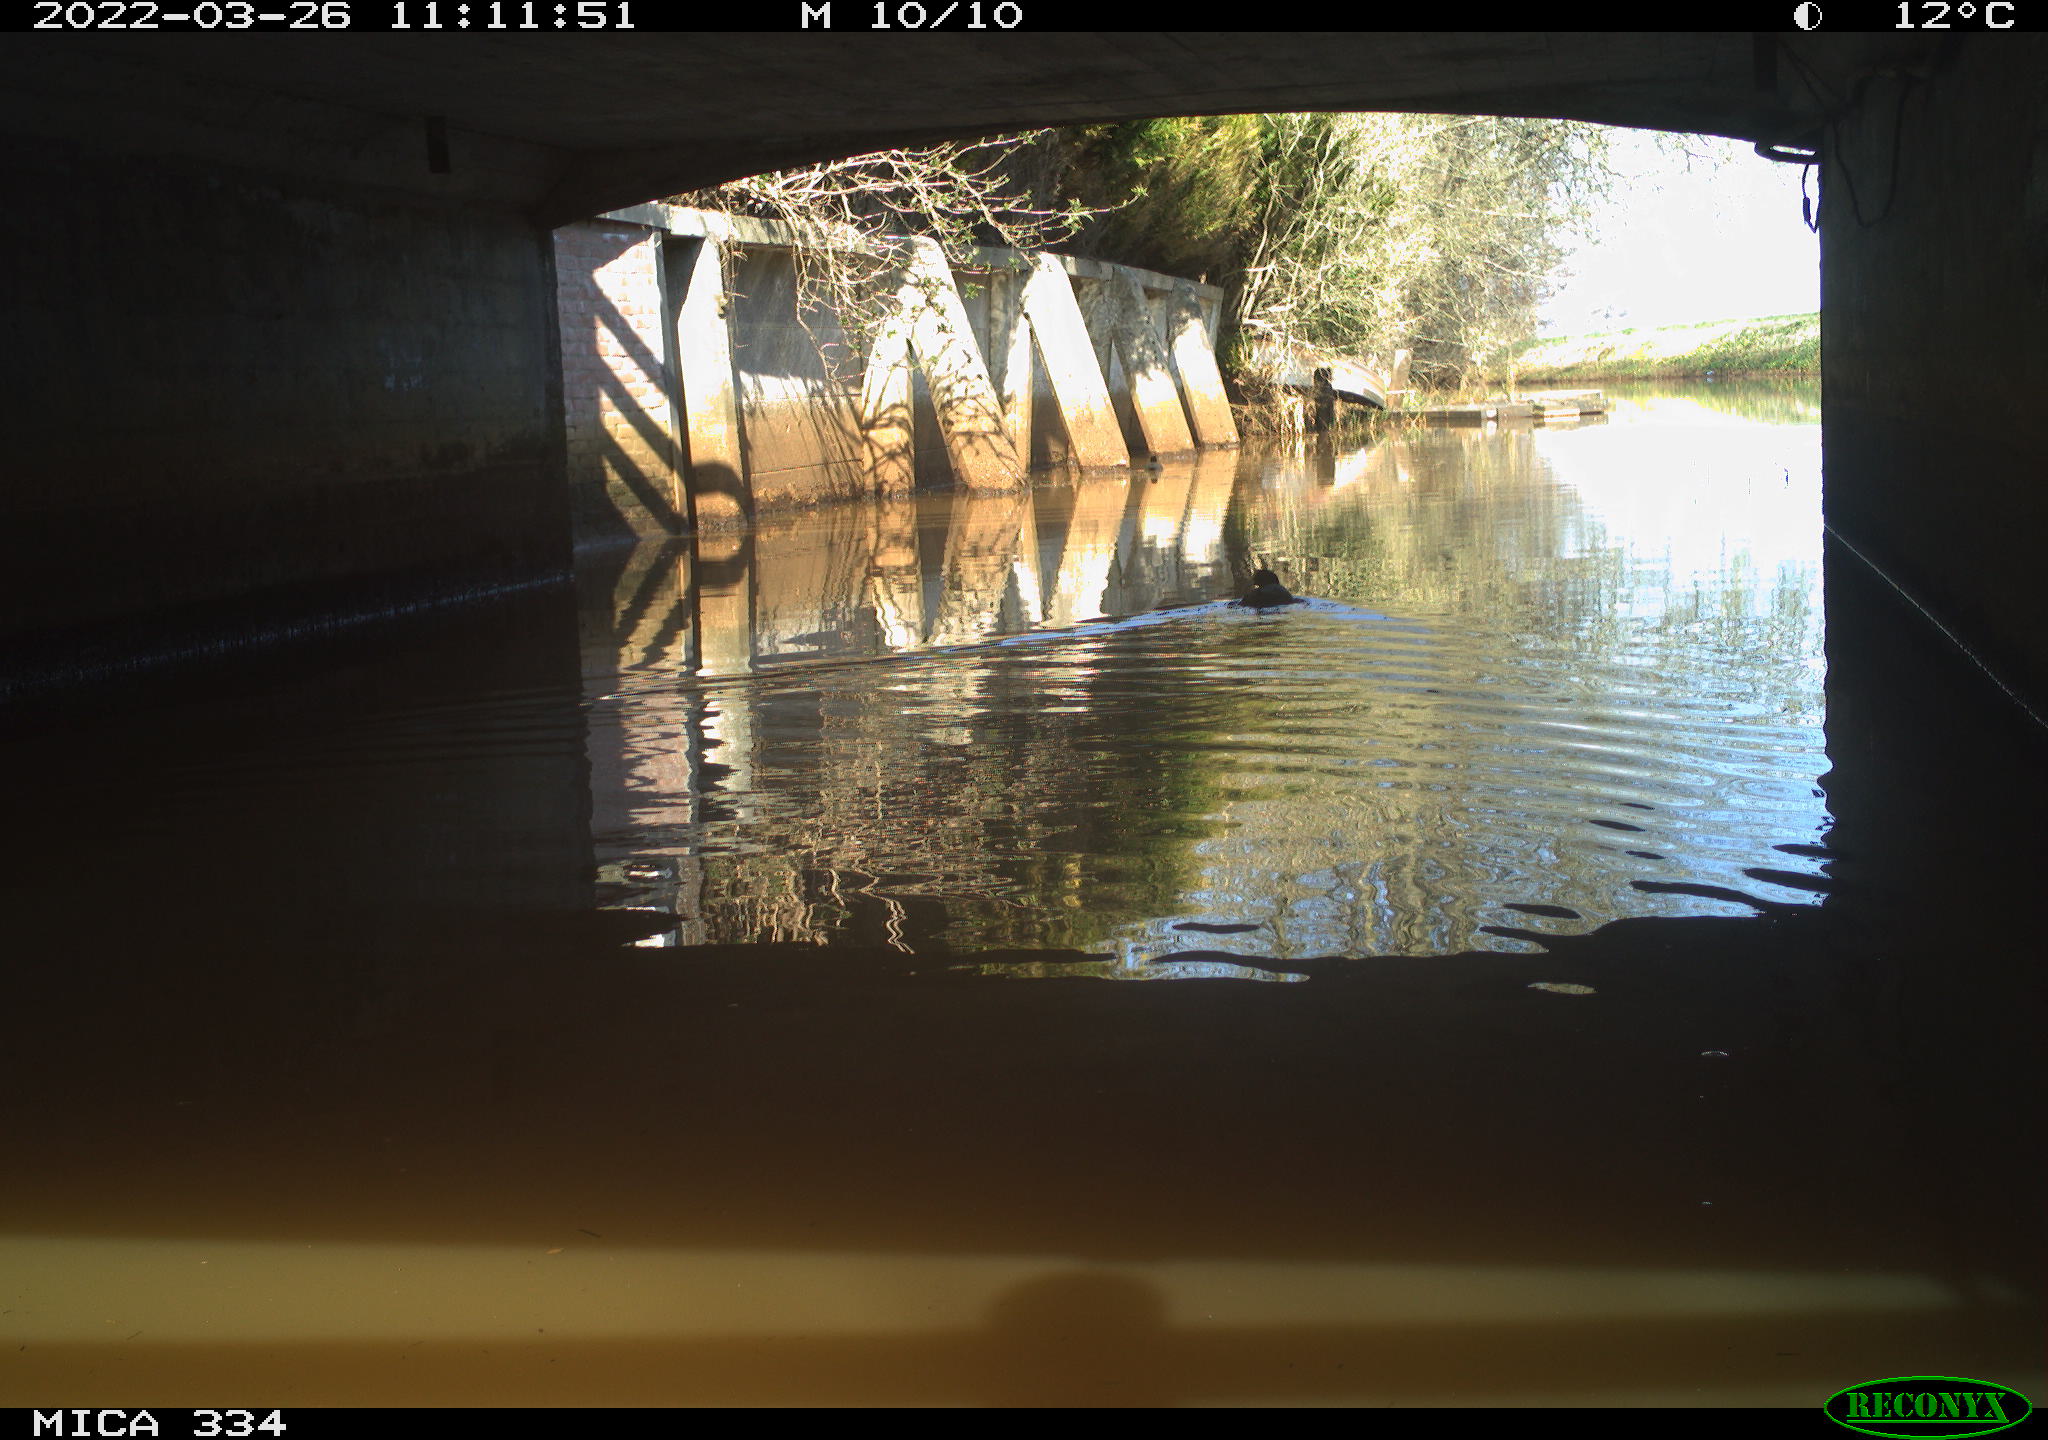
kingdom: Animalia
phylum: Chordata
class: Aves
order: Gruiformes
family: Rallidae
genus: Fulica
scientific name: Fulica atra
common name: Eurasian coot
